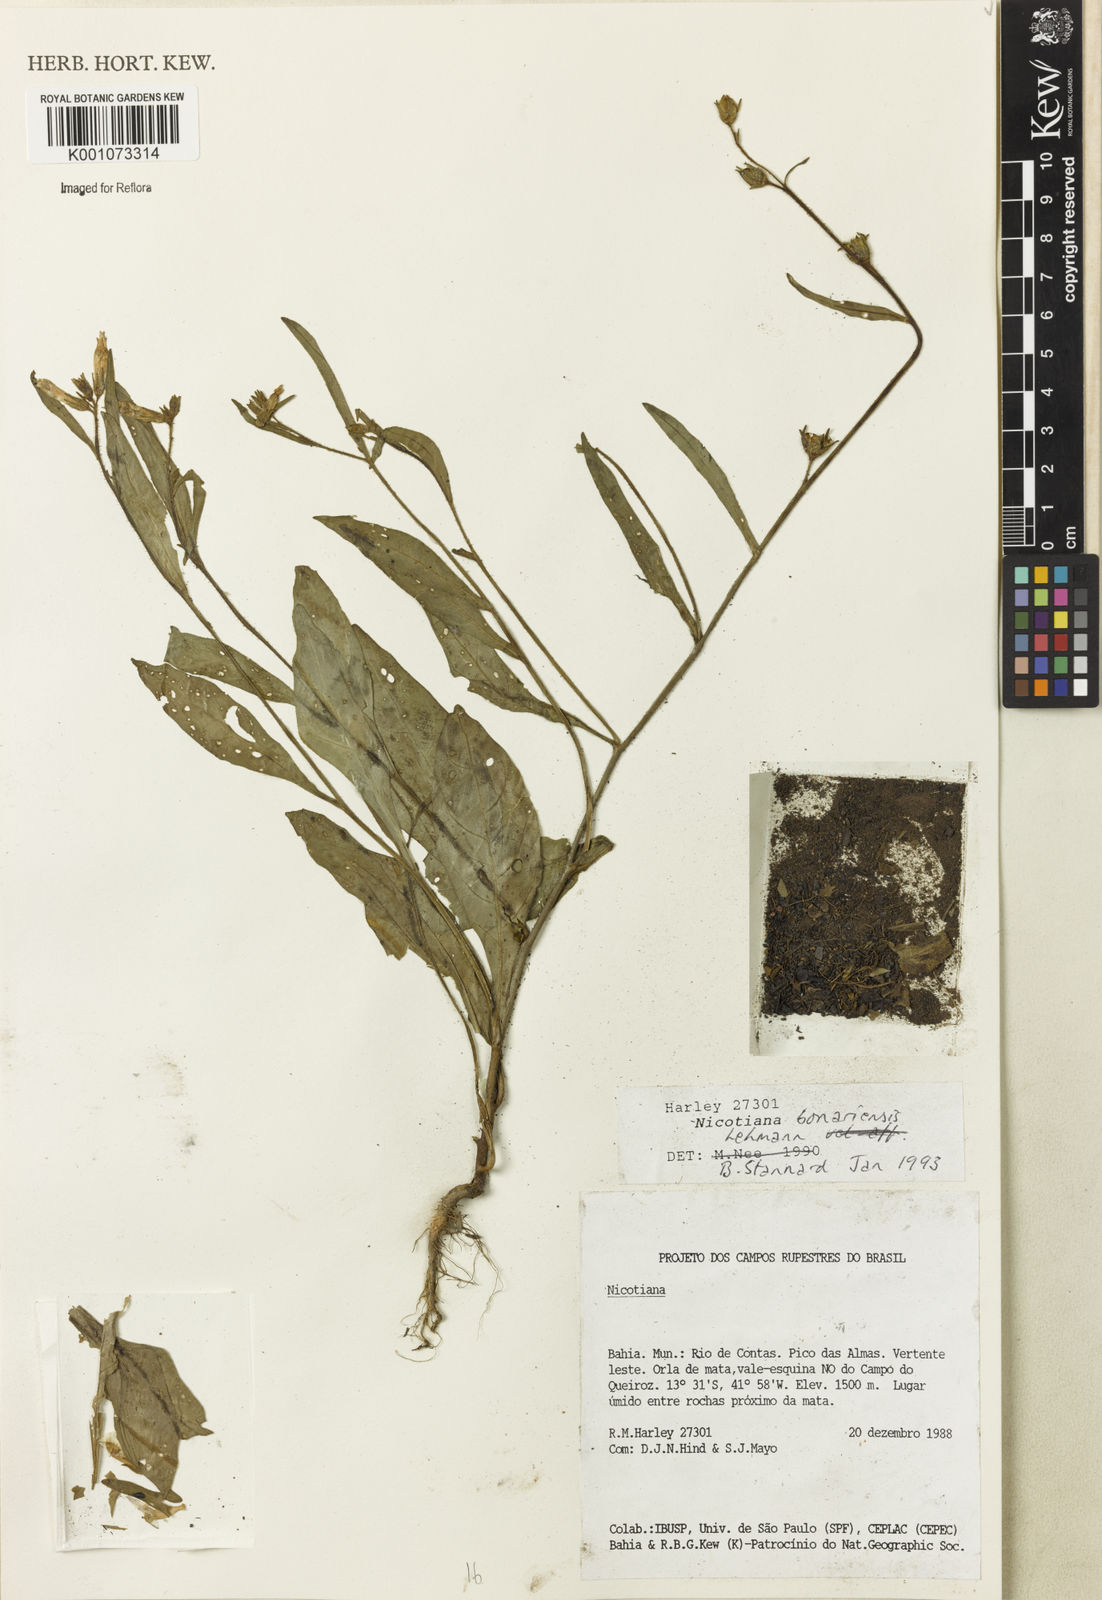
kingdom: Plantae
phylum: Tracheophyta
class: Magnoliopsida
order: Solanales
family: Solanaceae
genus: Nicotiana
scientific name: Nicotiana bonariensis
